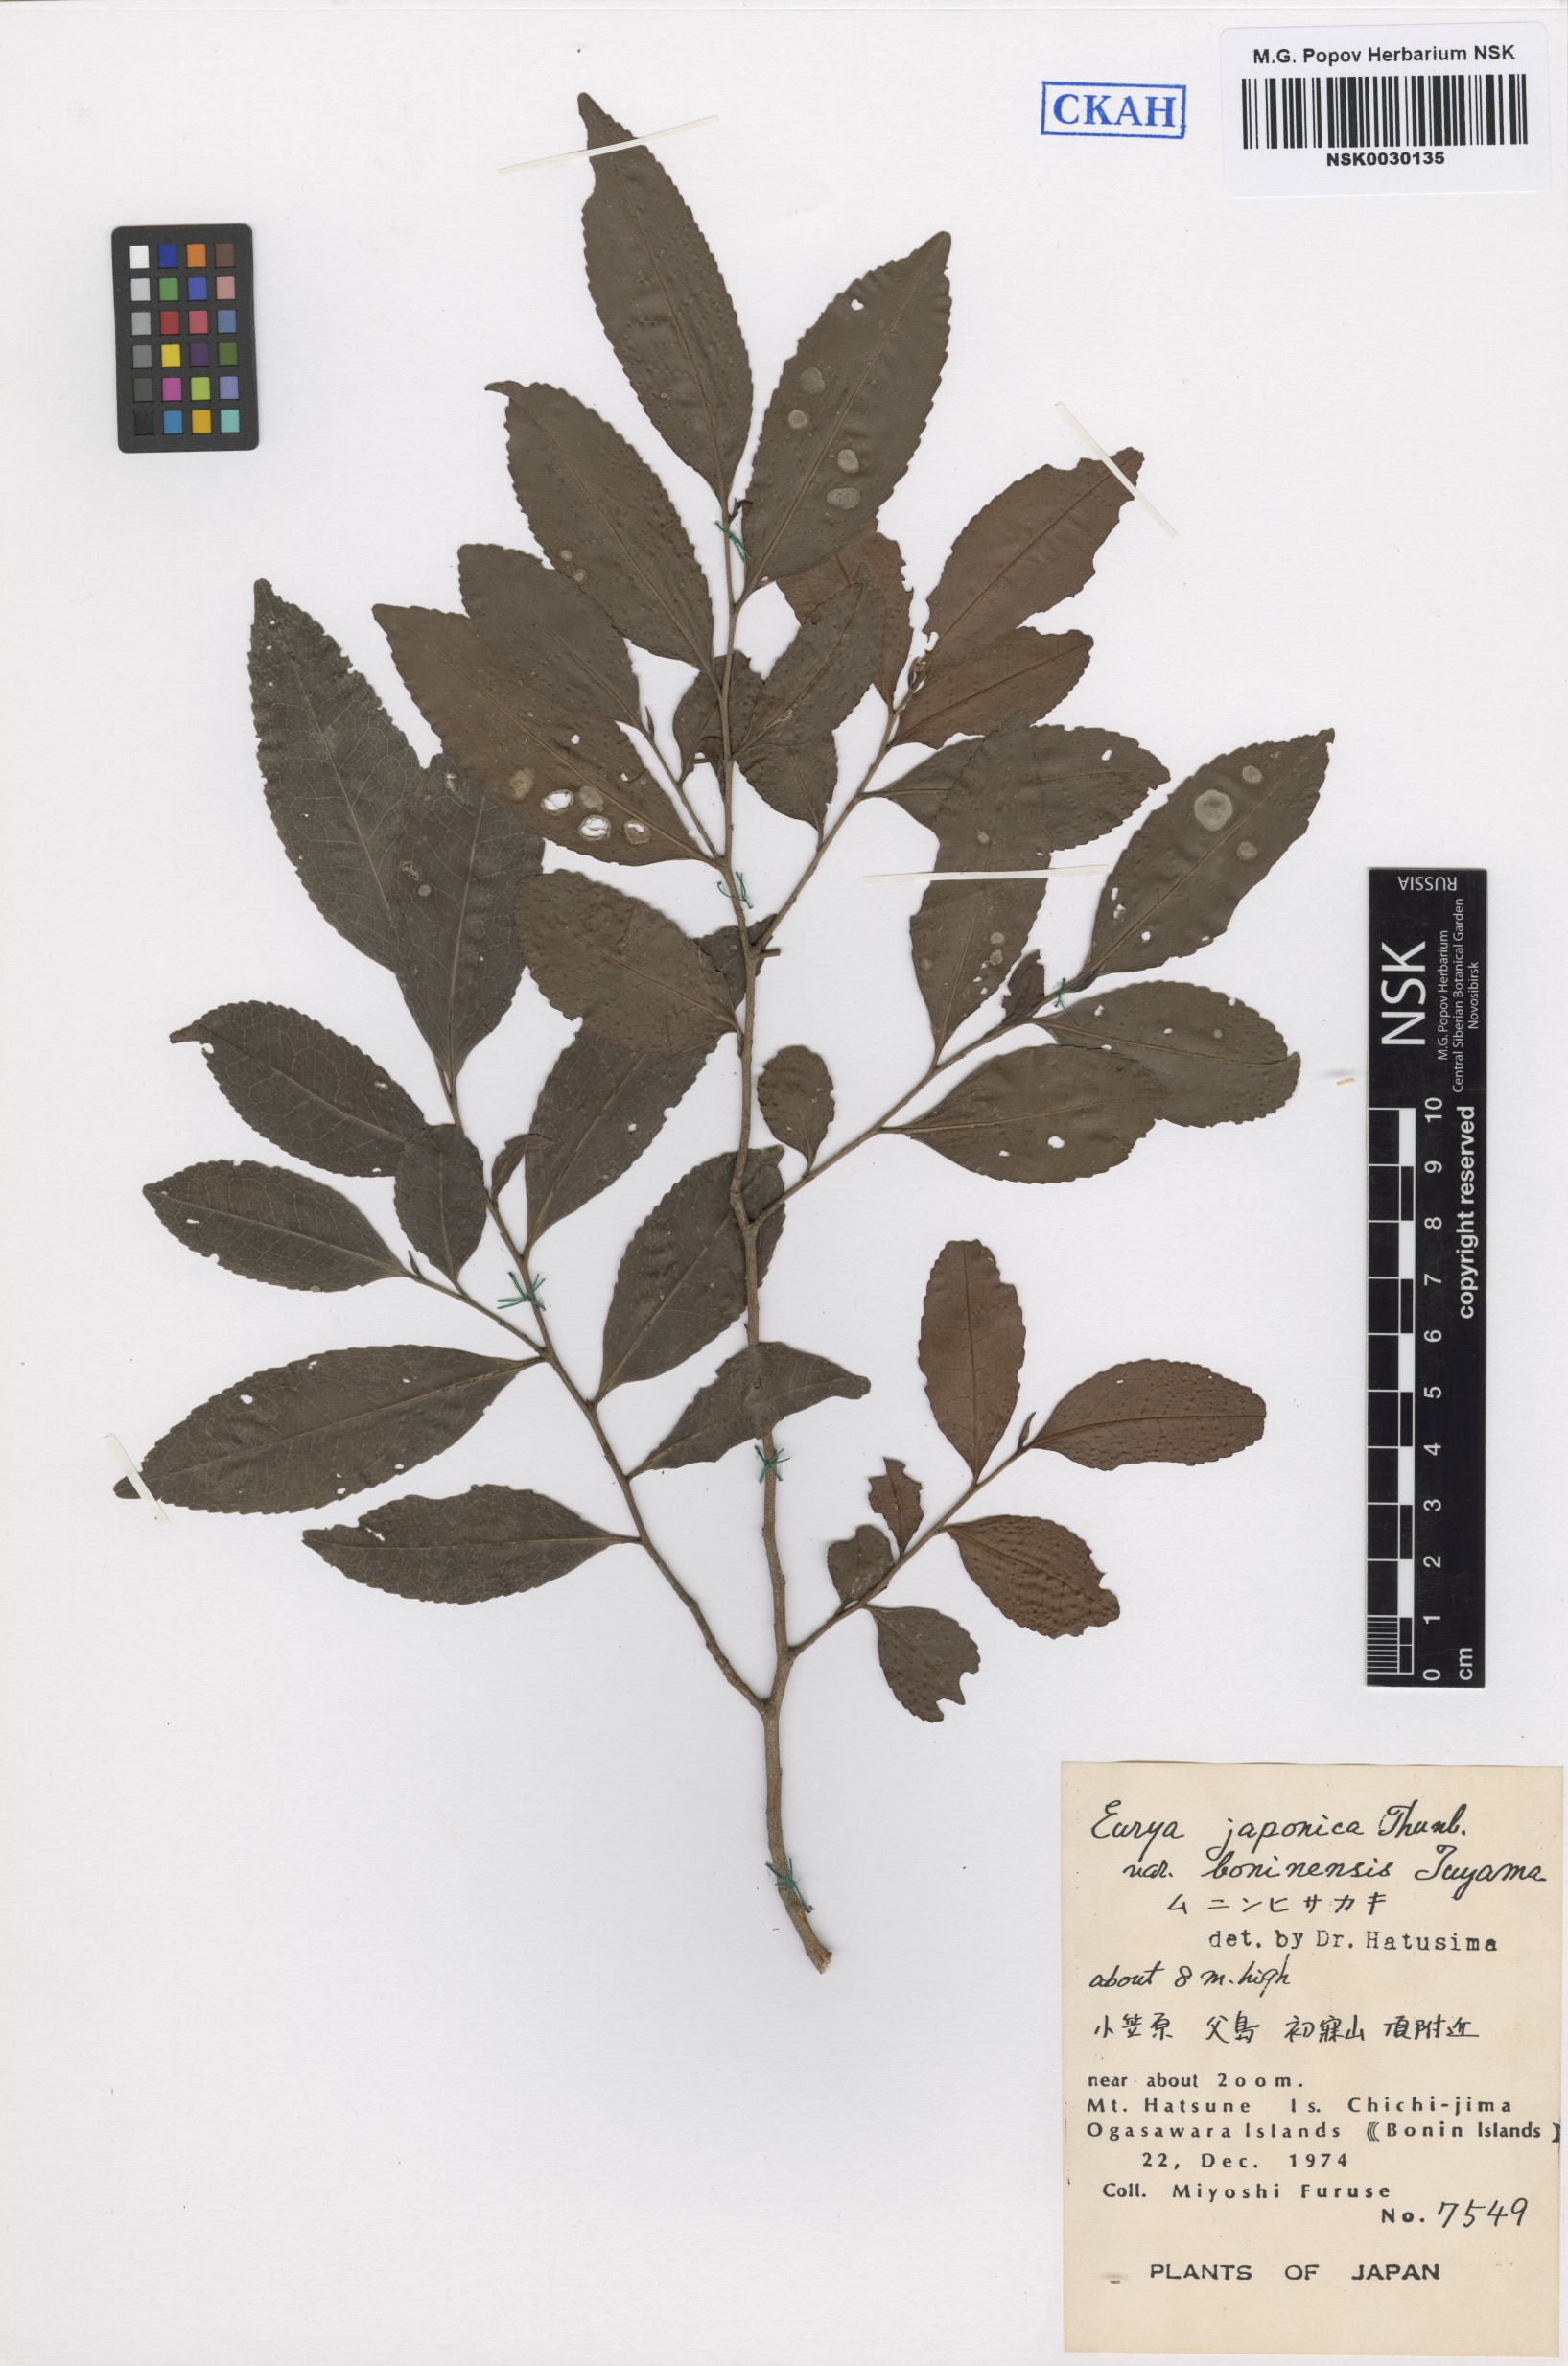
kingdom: Plantae
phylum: Tracheophyta
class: Magnoliopsida
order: Ericales
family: Pentaphylacaceae
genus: Eurya
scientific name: Eurya boninensis
